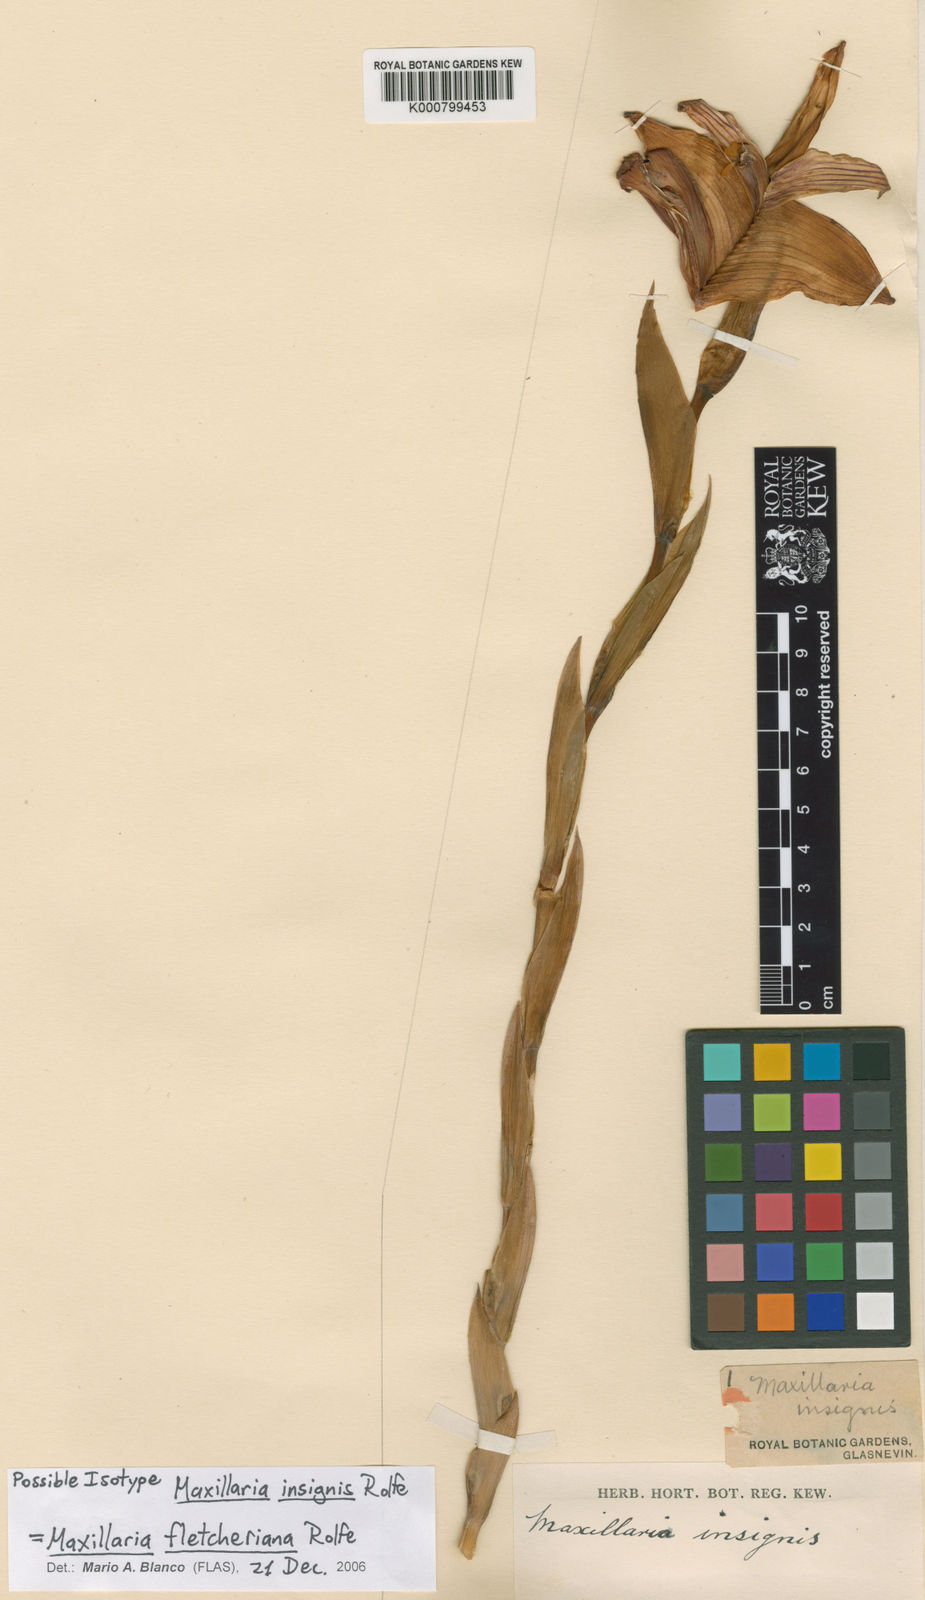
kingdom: Plantae
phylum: Tracheophyta
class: Liliopsida
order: Asparagales
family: Orchidaceae
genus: Maxillaria
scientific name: Maxillaria fletcheriana
